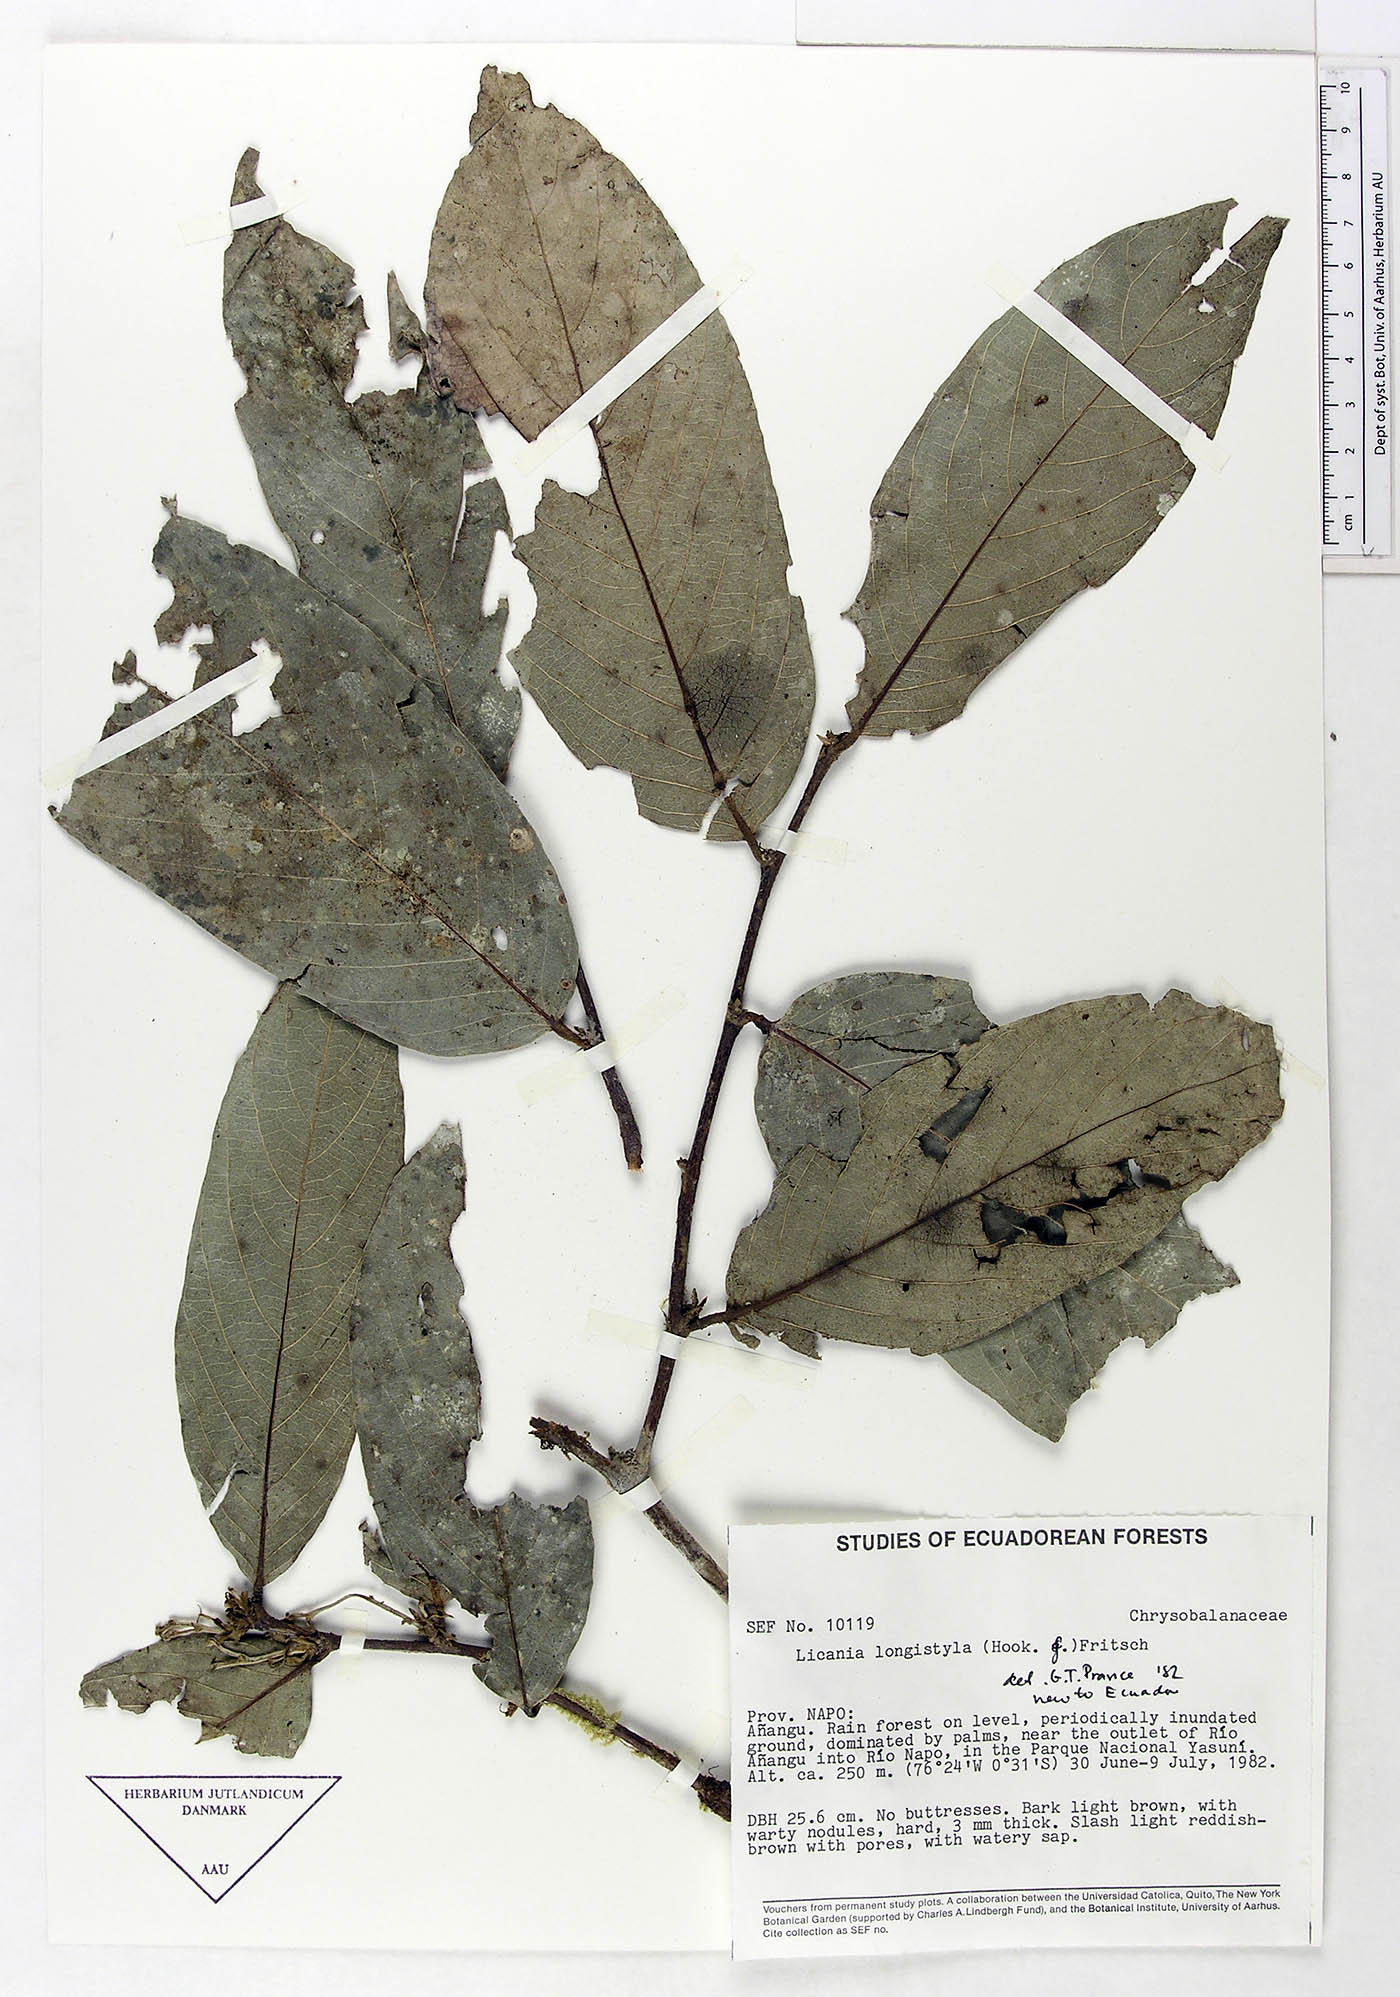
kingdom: Plantae
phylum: Tracheophyta
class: Magnoliopsida
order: Malpighiales
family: Chrysobalanaceae
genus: Leptobalanus
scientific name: Leptobalanus longistylus
